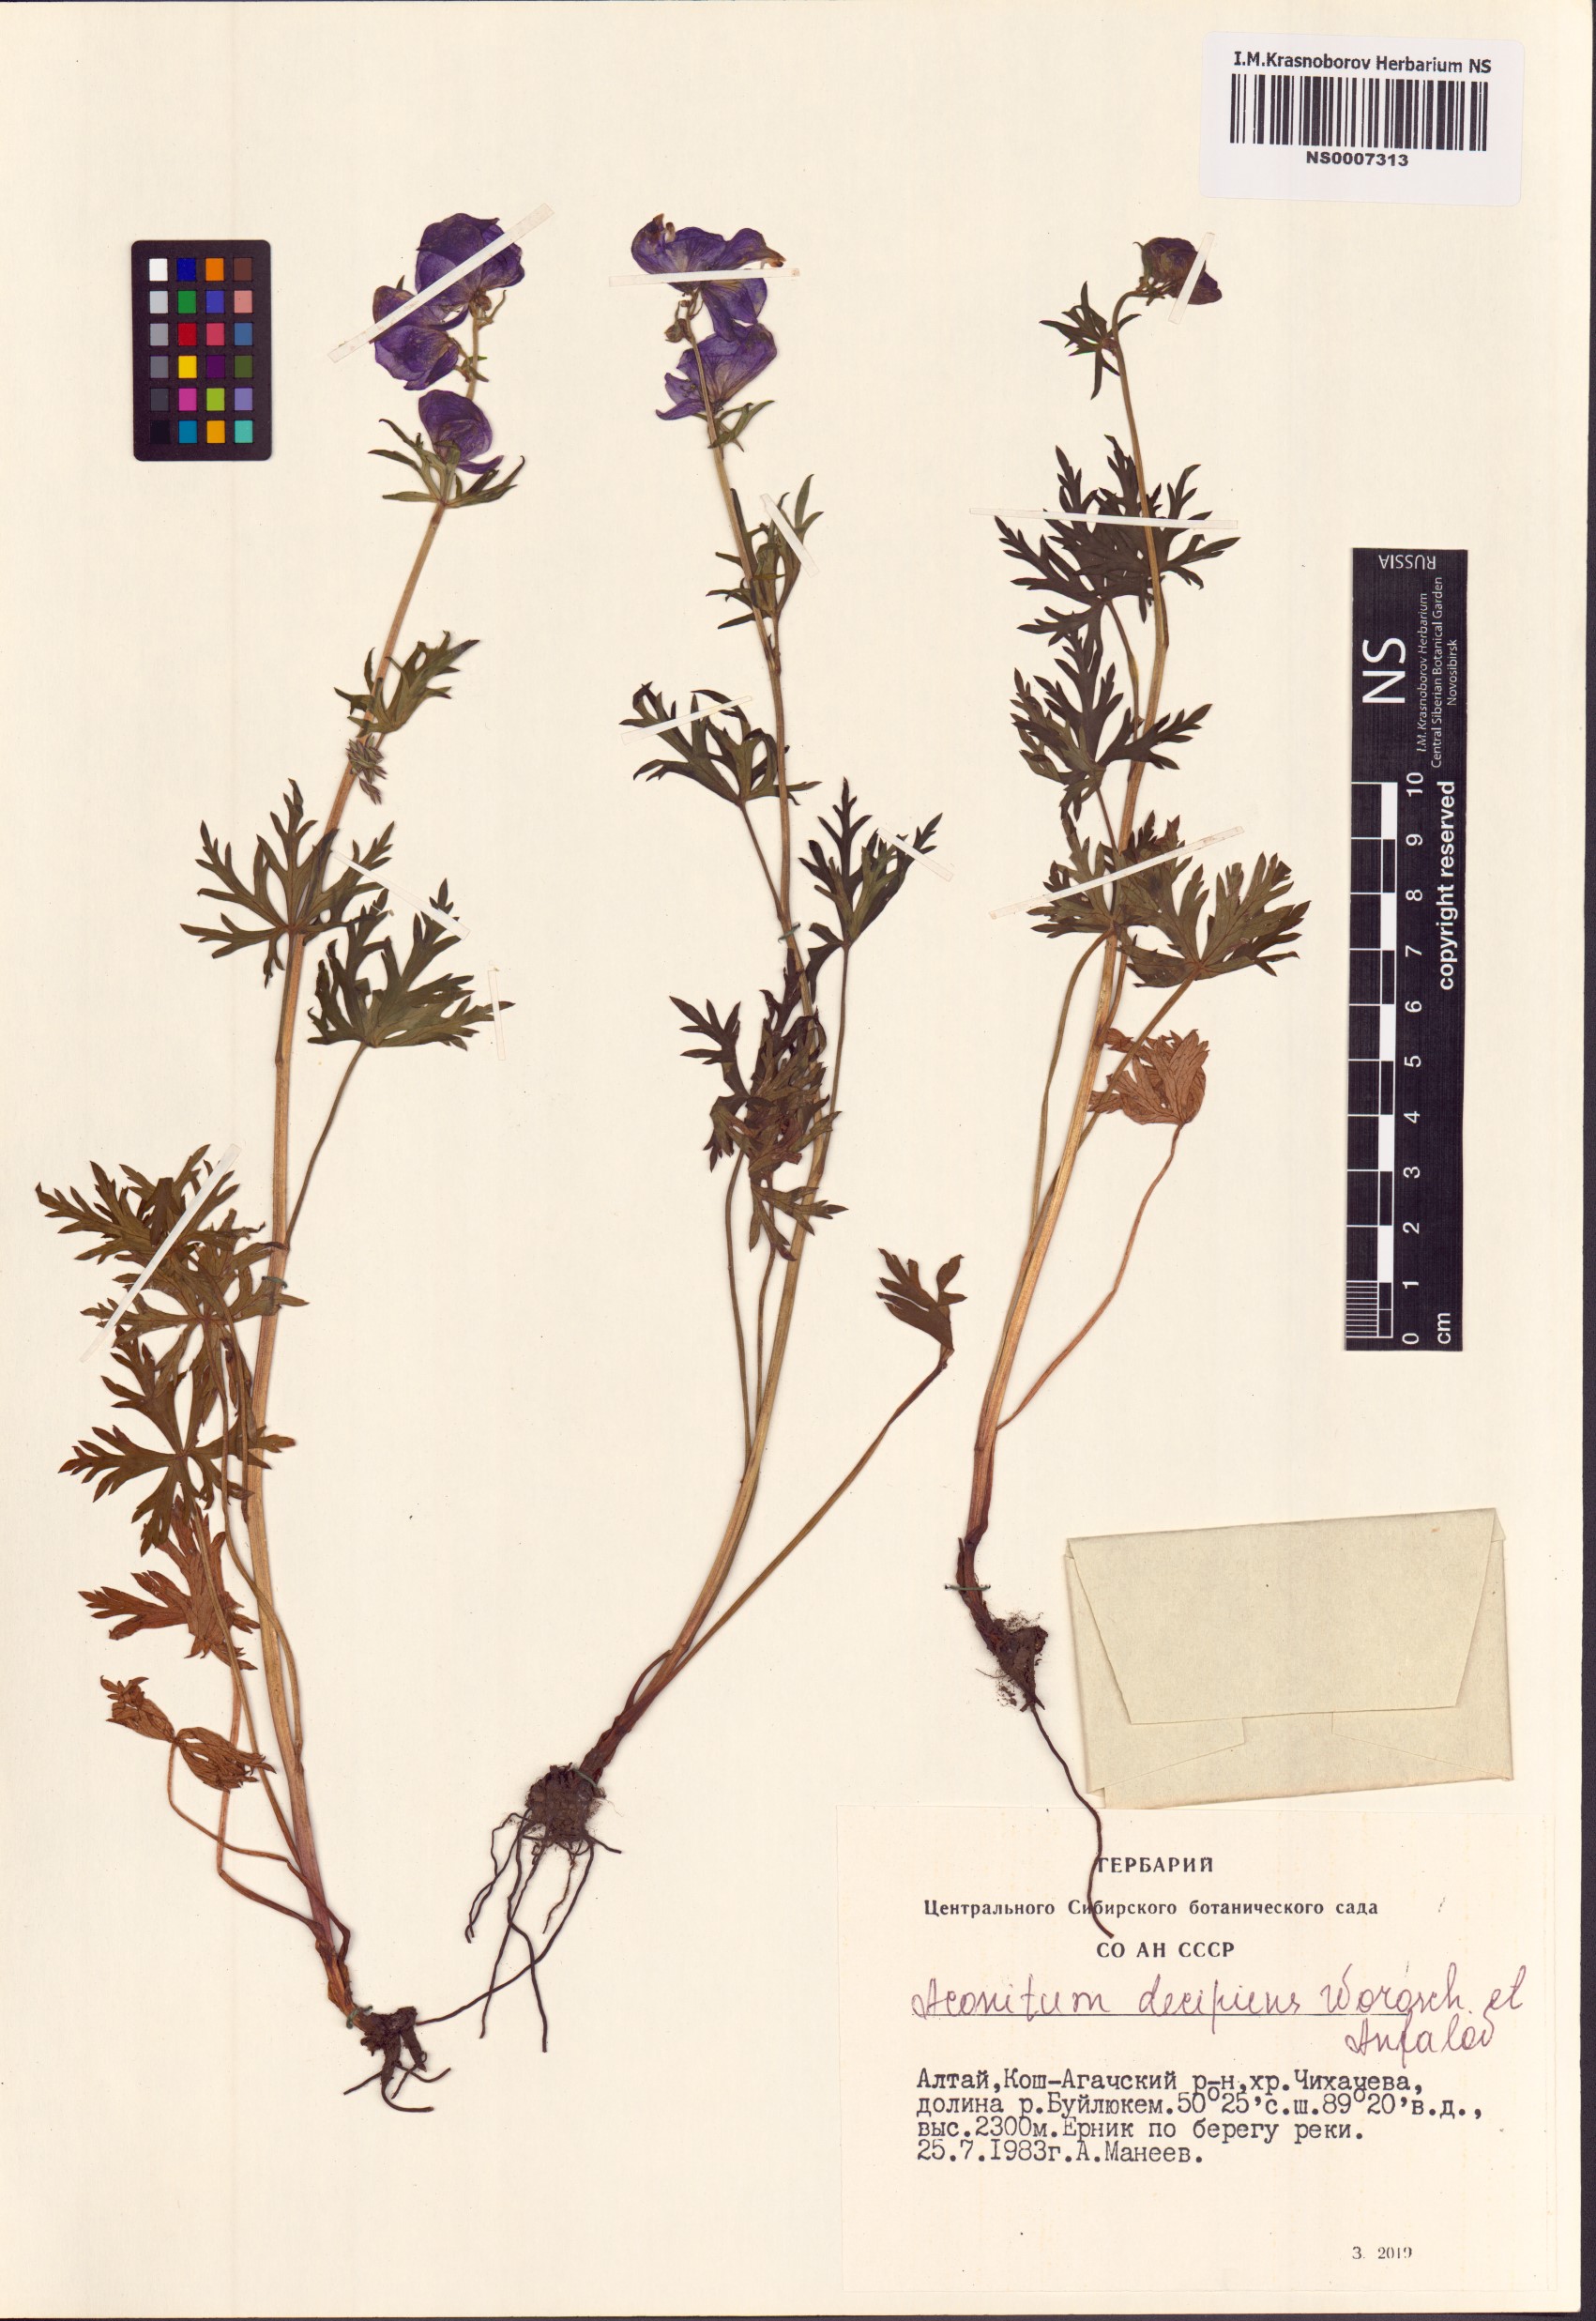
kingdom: Plantae
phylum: Tracheophyta
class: Magnoliopsida
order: Ranunculales
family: Ranunculaceae
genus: Aconitum
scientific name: Aconitum decipiens
